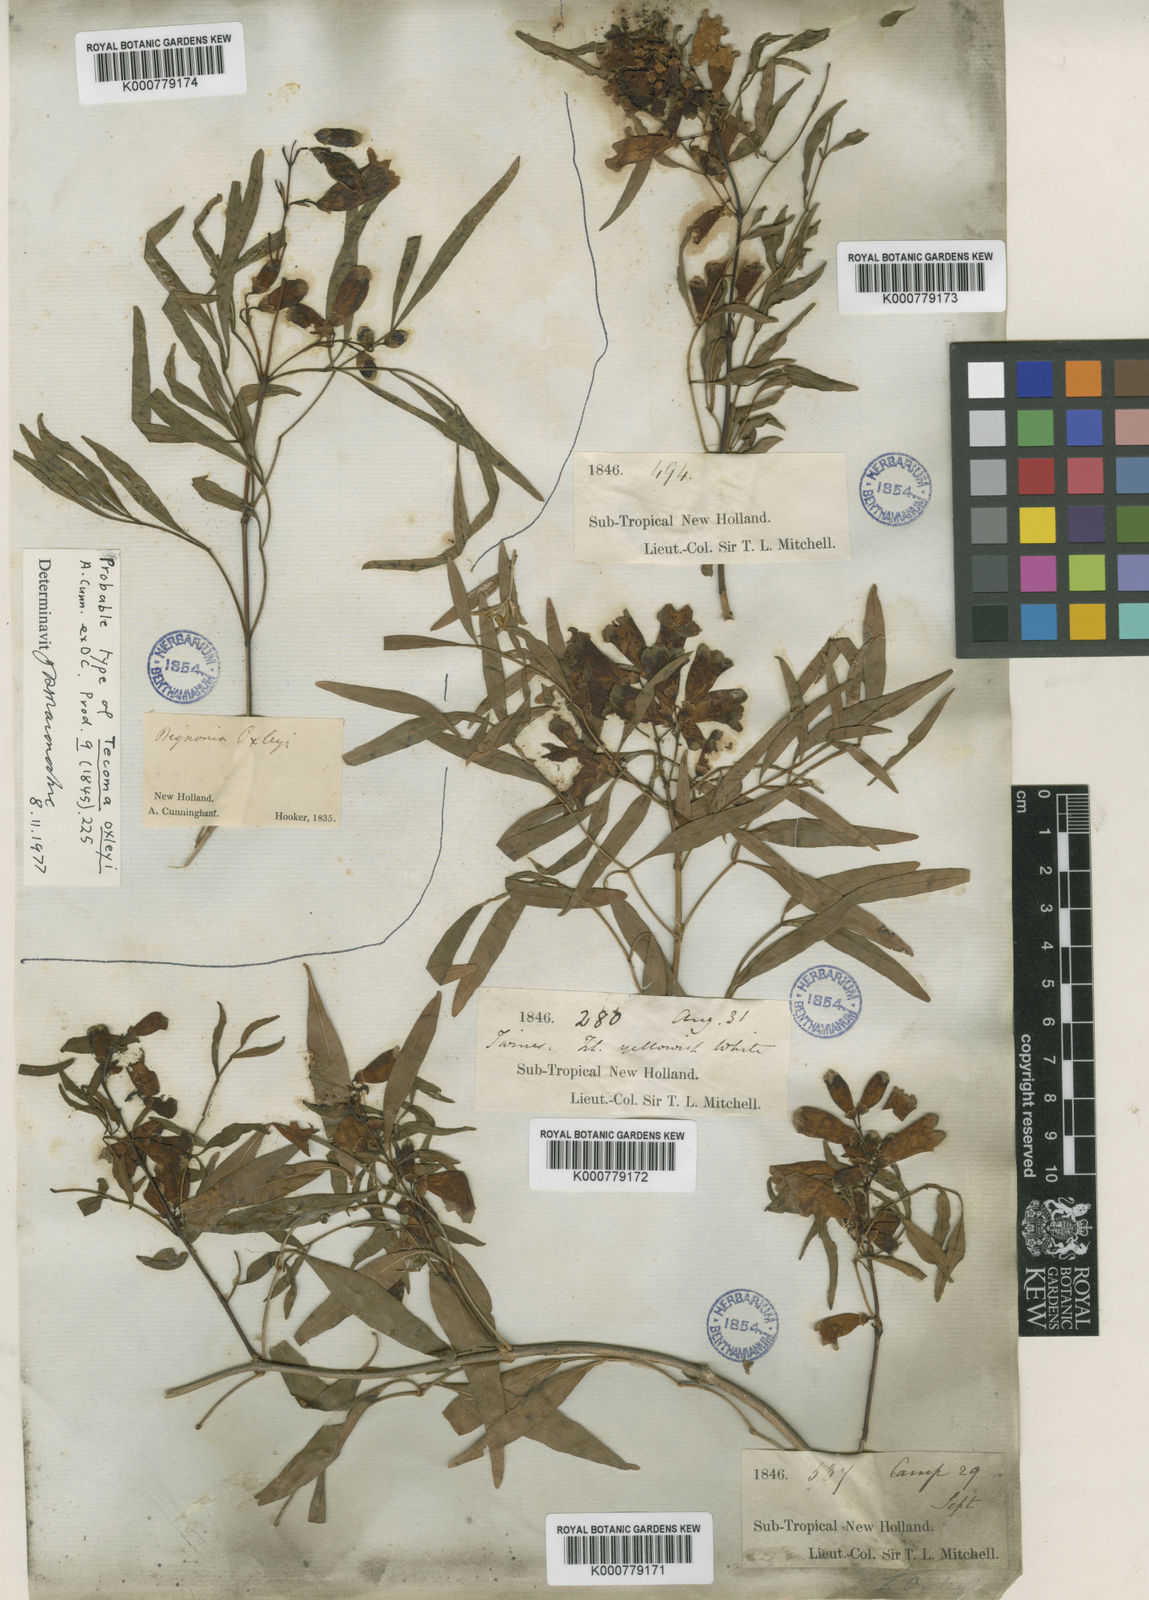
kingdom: Plantae
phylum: Tracheophyta
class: Magnoliopsida
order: Lamiales
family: Bignoniaceae
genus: Pandorea
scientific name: Pandorea pandorana
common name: Wonga-wonga-vine
